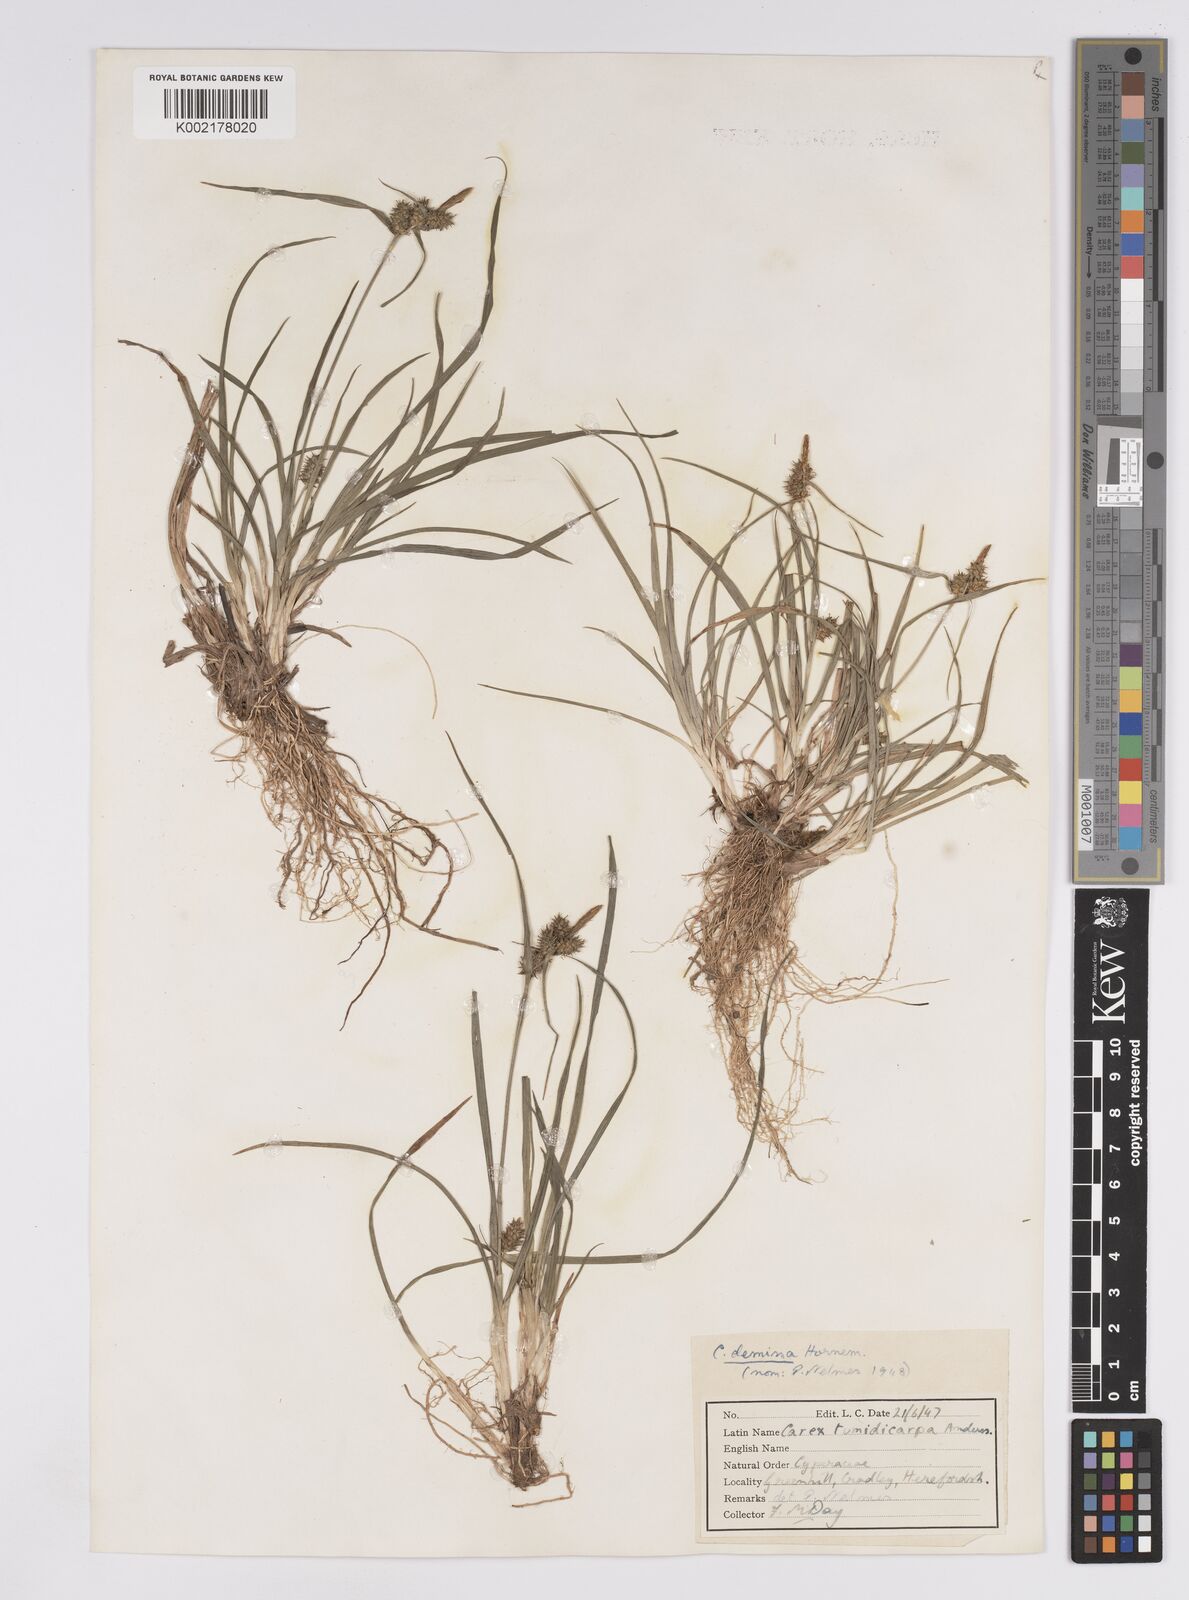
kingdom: Plantae
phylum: Tracheophyta
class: Liliopsida
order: Poales
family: Cyperaceae
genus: Carex
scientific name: Carex demissa
